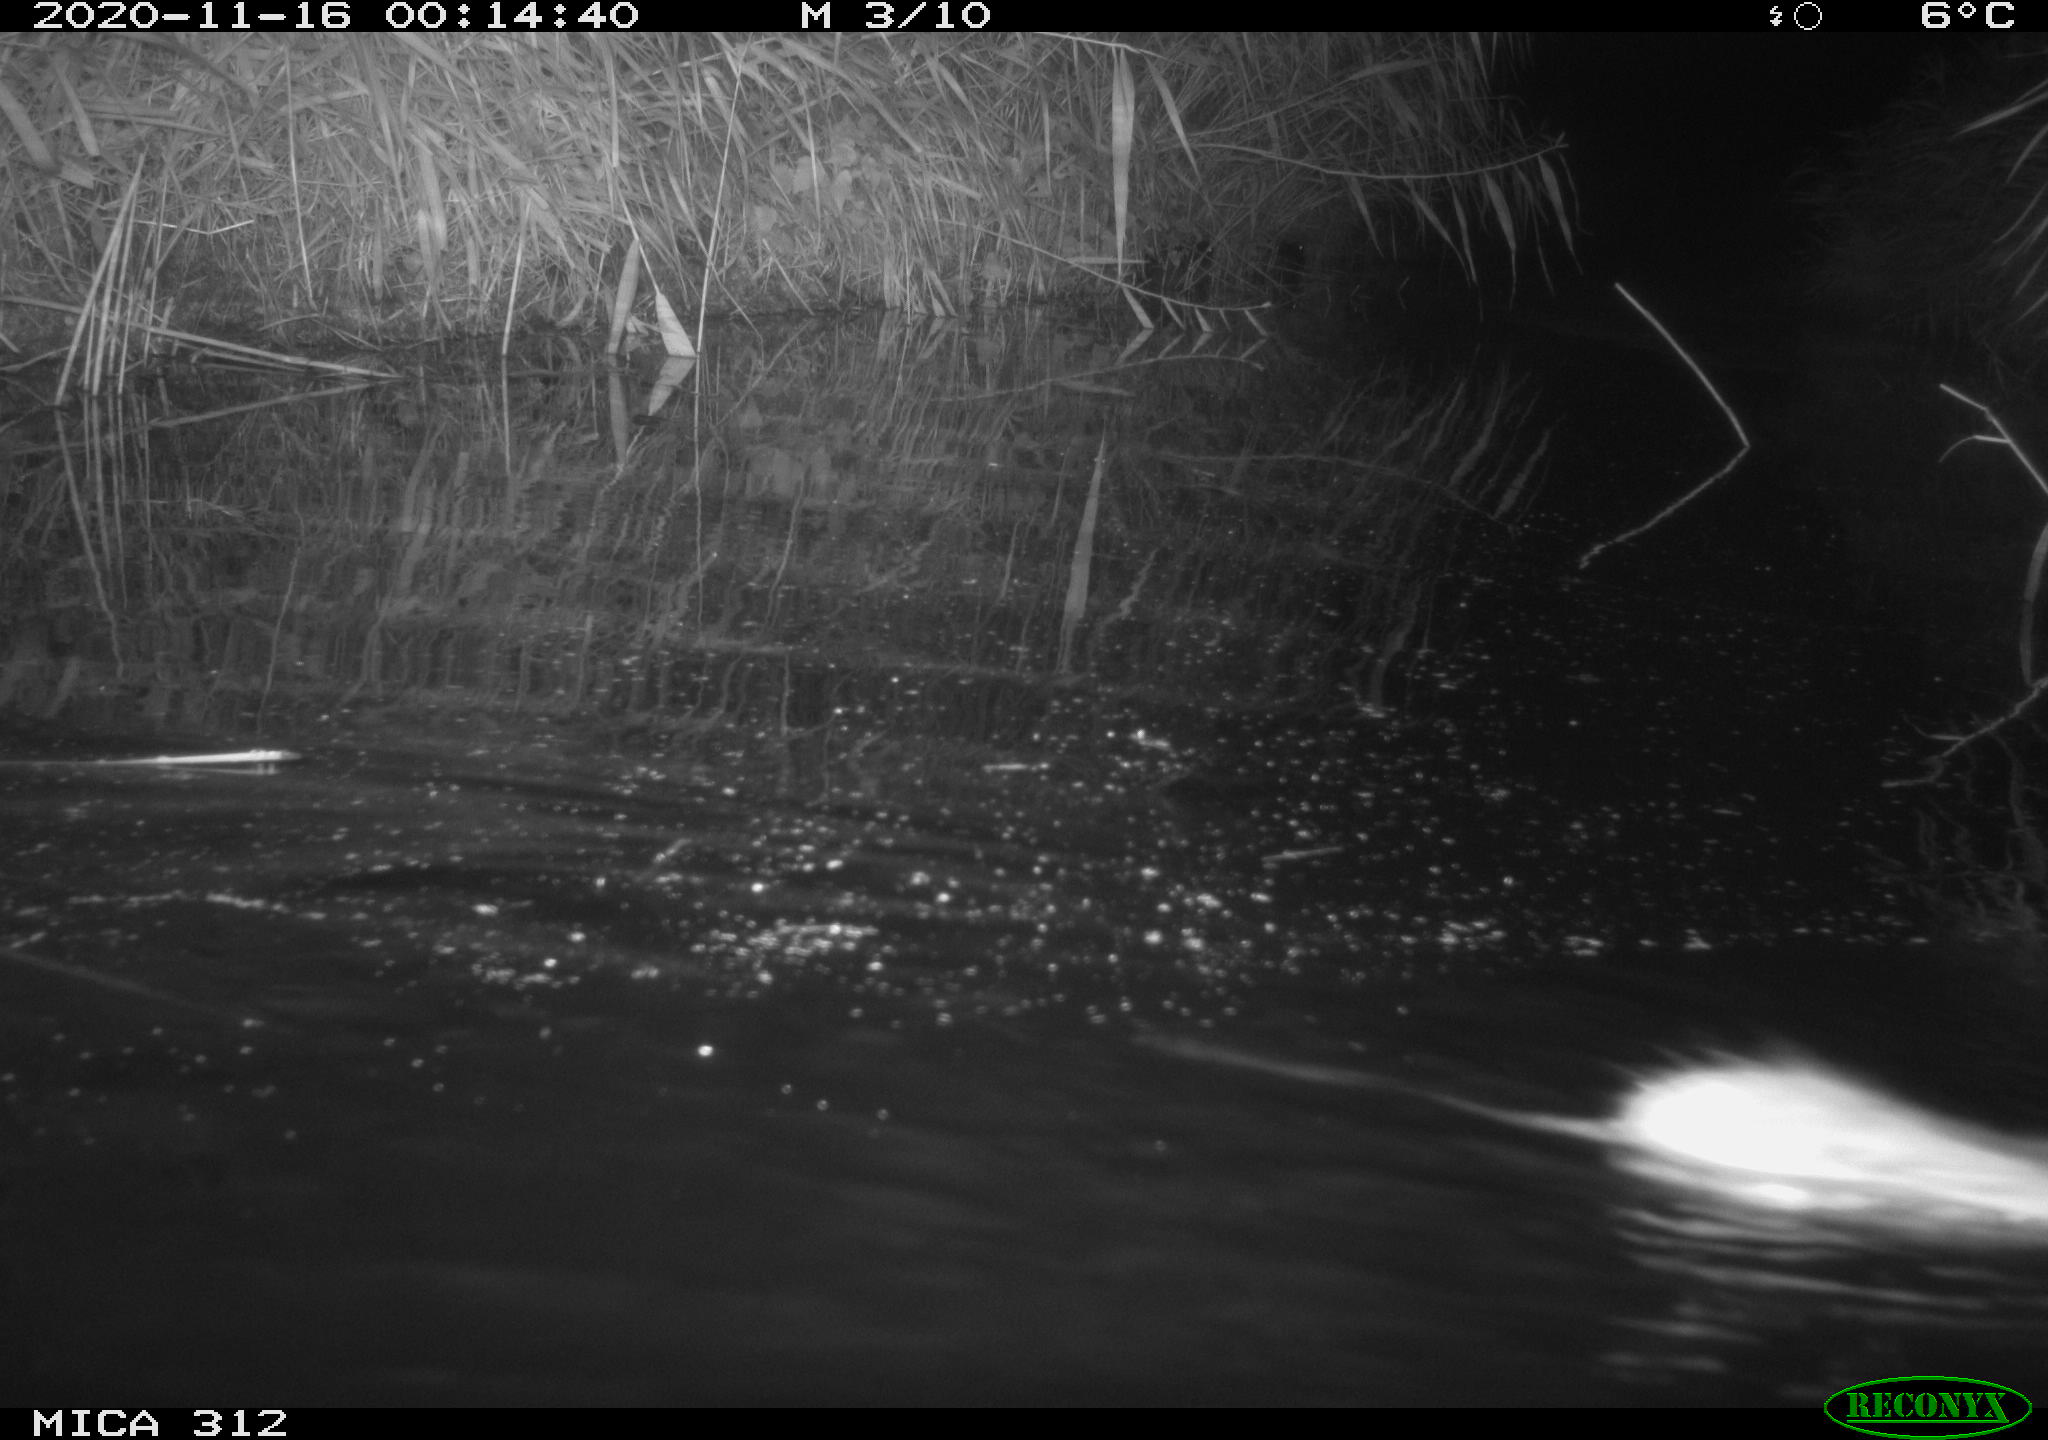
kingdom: Animalia
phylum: Chordata
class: Mammalia
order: Rodentia
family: Muridae
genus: Rattus
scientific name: Rattus norvegicus
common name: Brown rat
